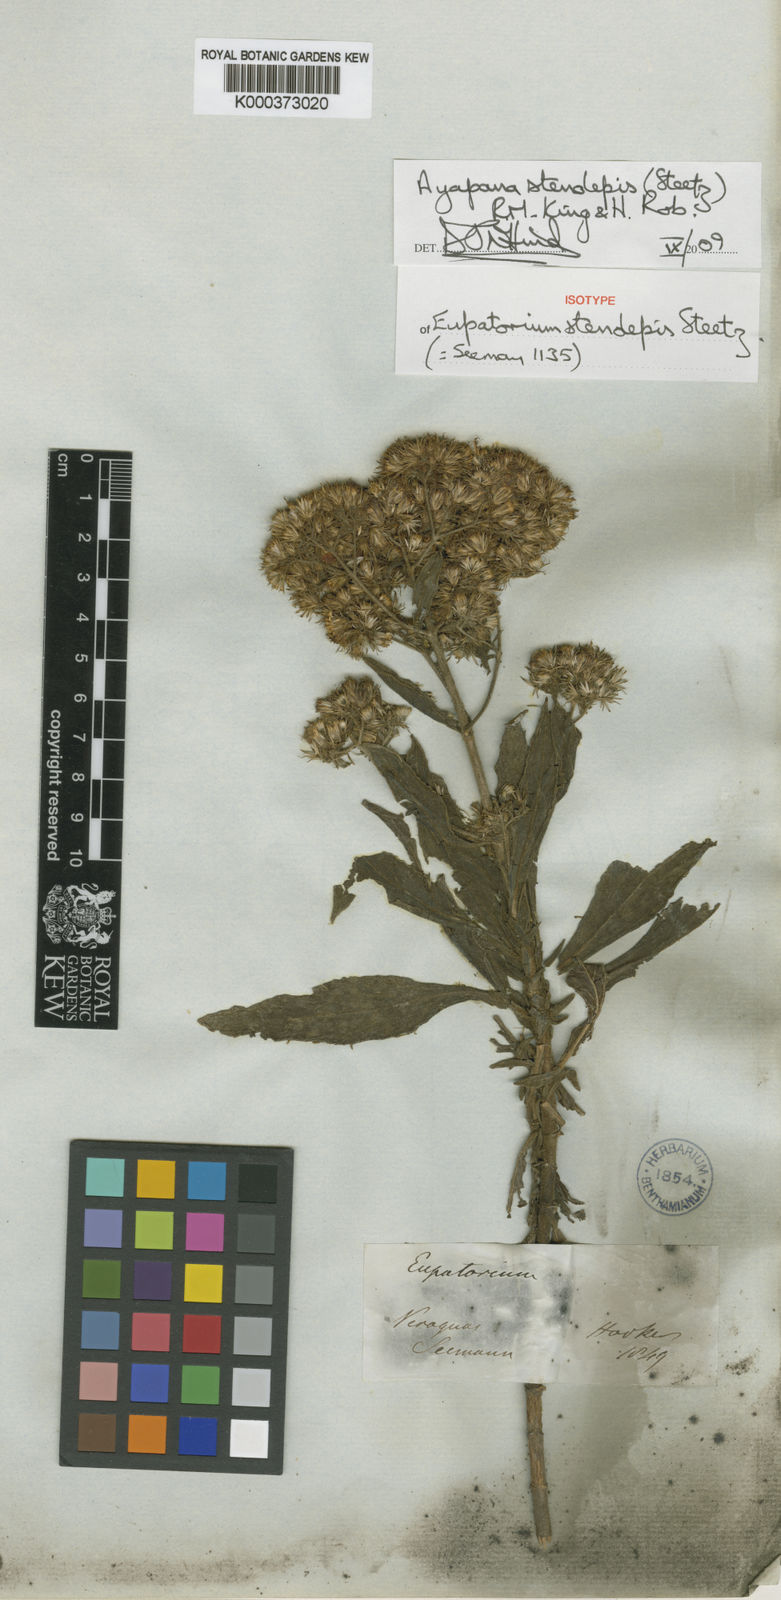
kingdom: Plantae
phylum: Tracheophyta
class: Magnoliopsida
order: Asterales
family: Asteraceae
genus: Ayapana
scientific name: Ayapana stenolepis
